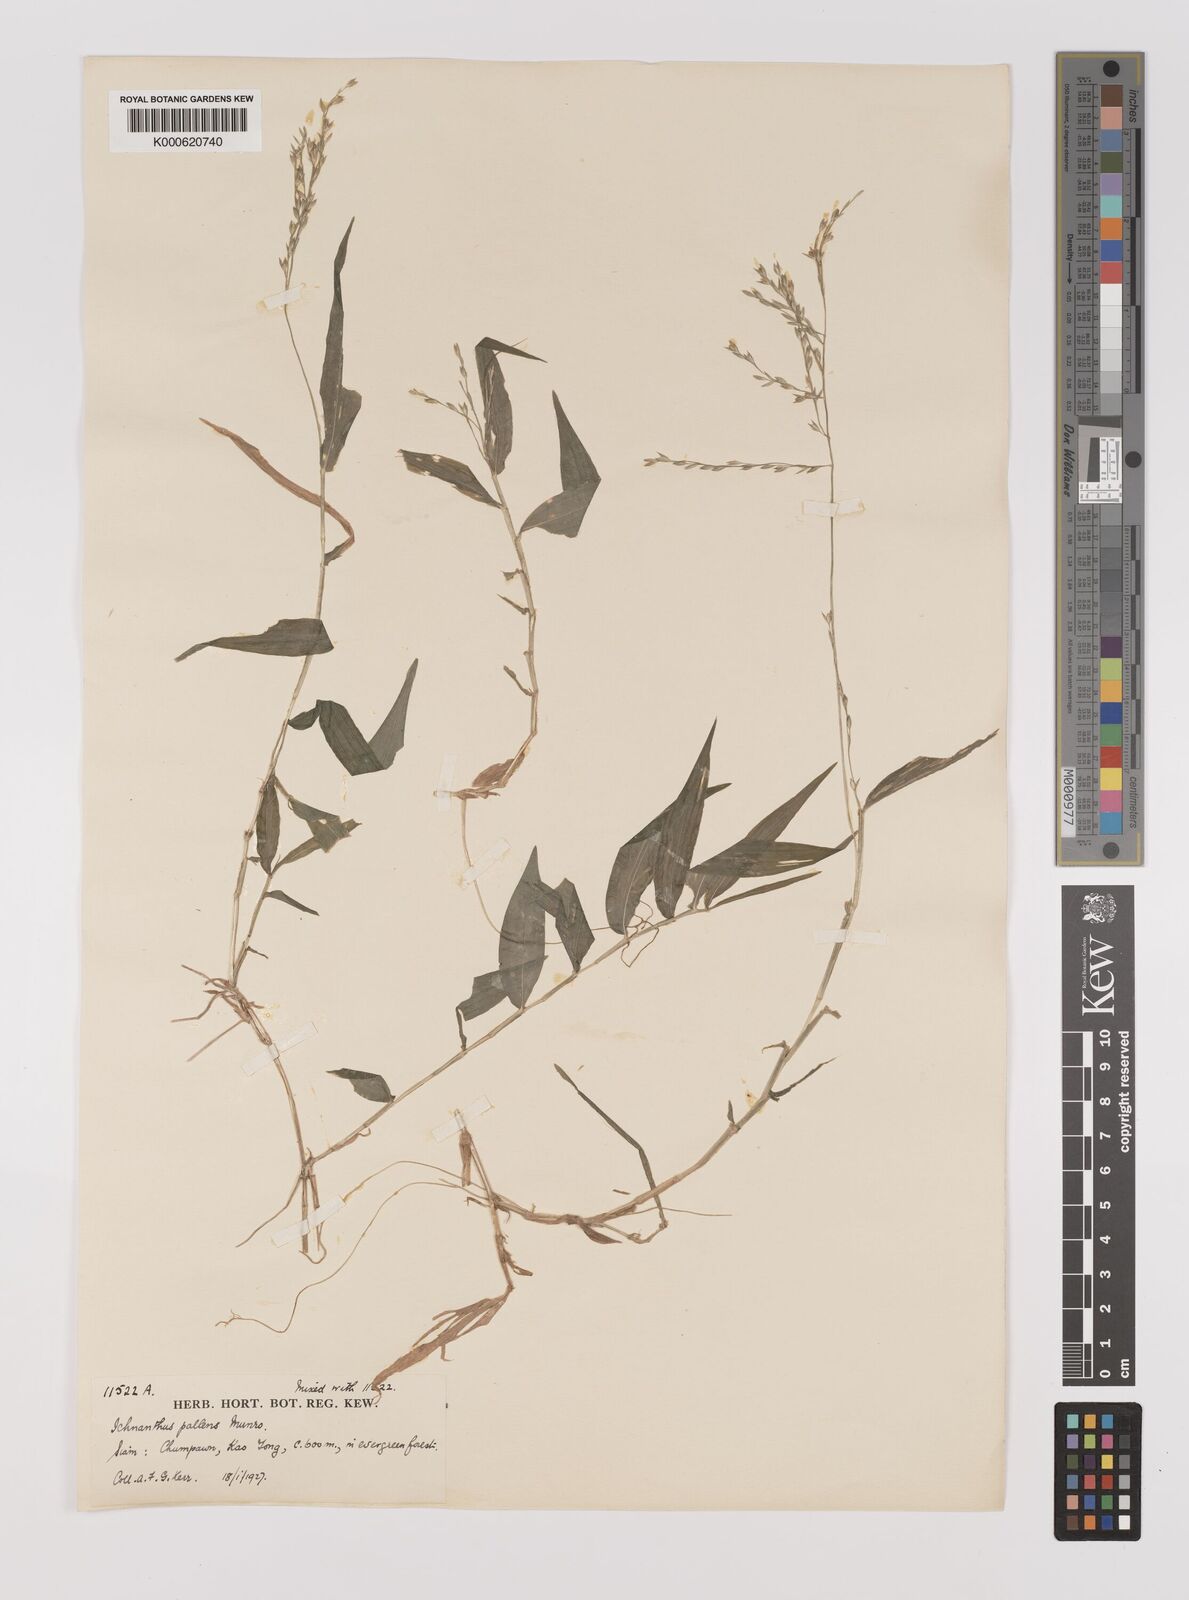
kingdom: Plantae
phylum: Tracheophyta
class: Liliopsida
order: Poales
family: Poaceae
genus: Ichnanthus
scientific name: Ichnanthus
